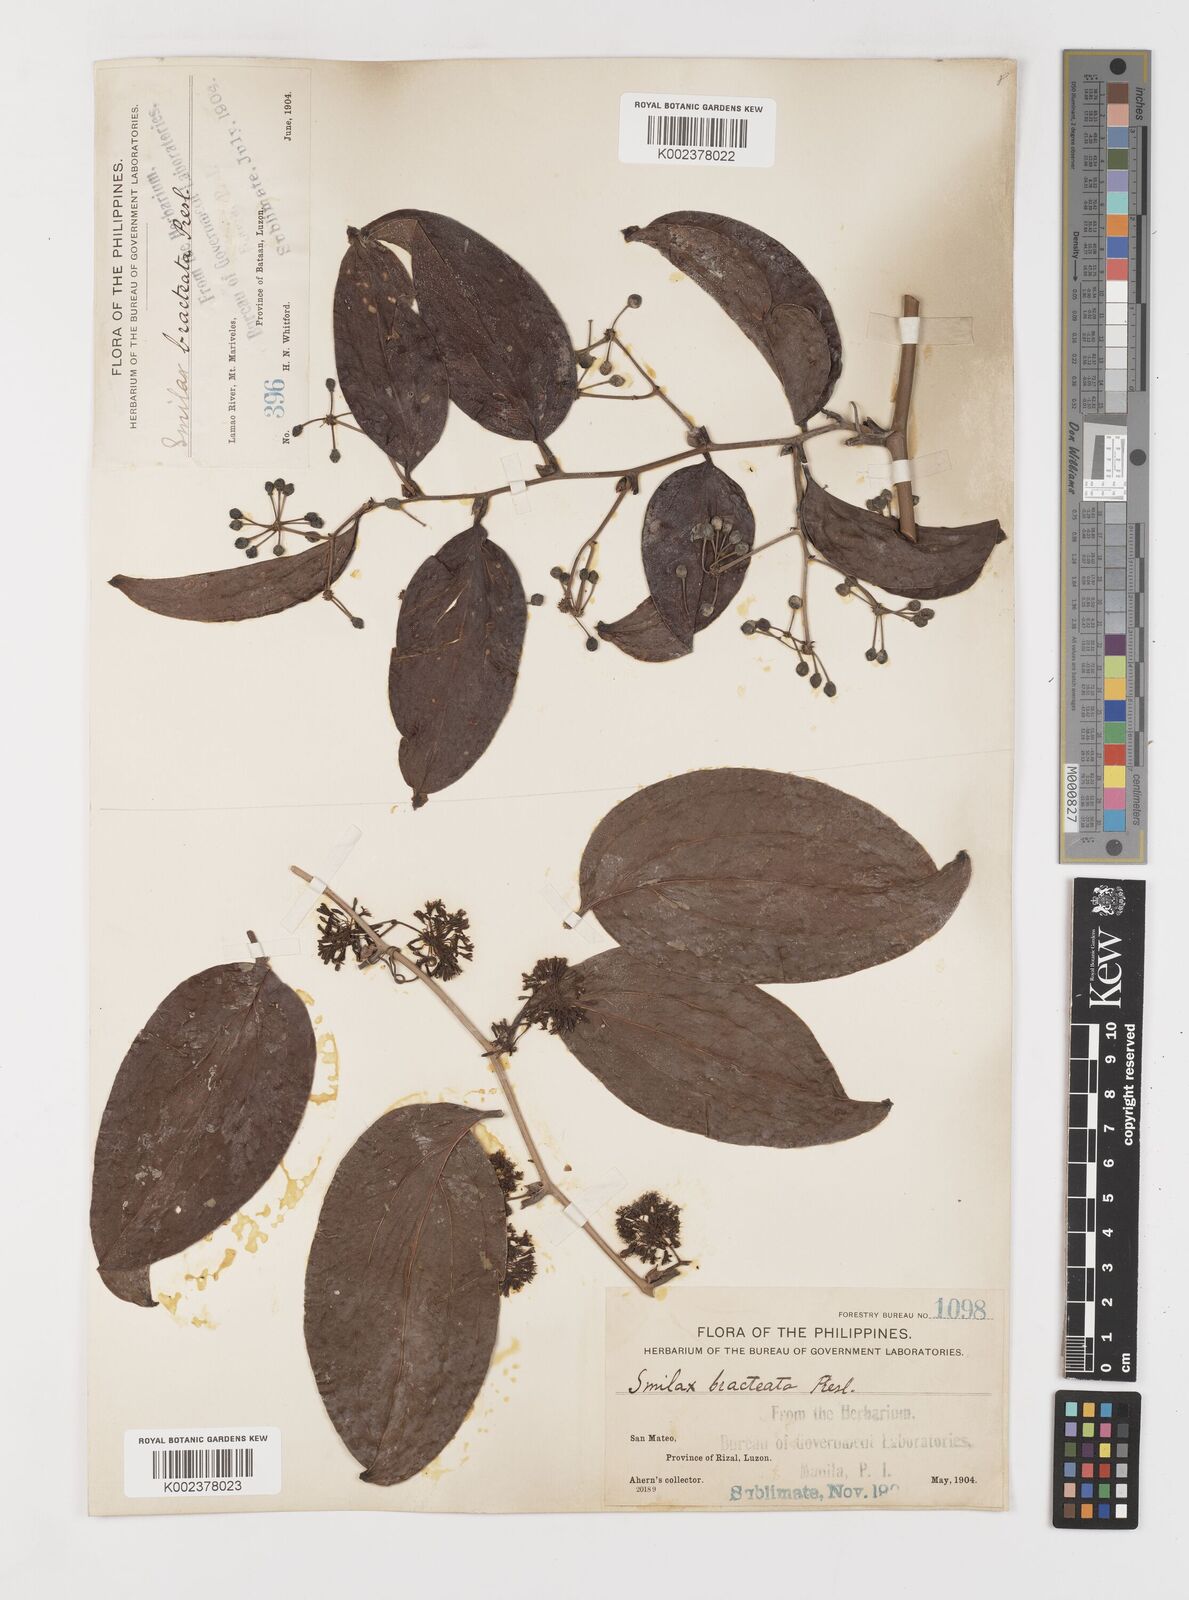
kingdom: Plantae
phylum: Tracheophyta
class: Liliopsida
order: Liliales
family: Smilacaceae
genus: Smilax
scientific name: Smilax bracteata
